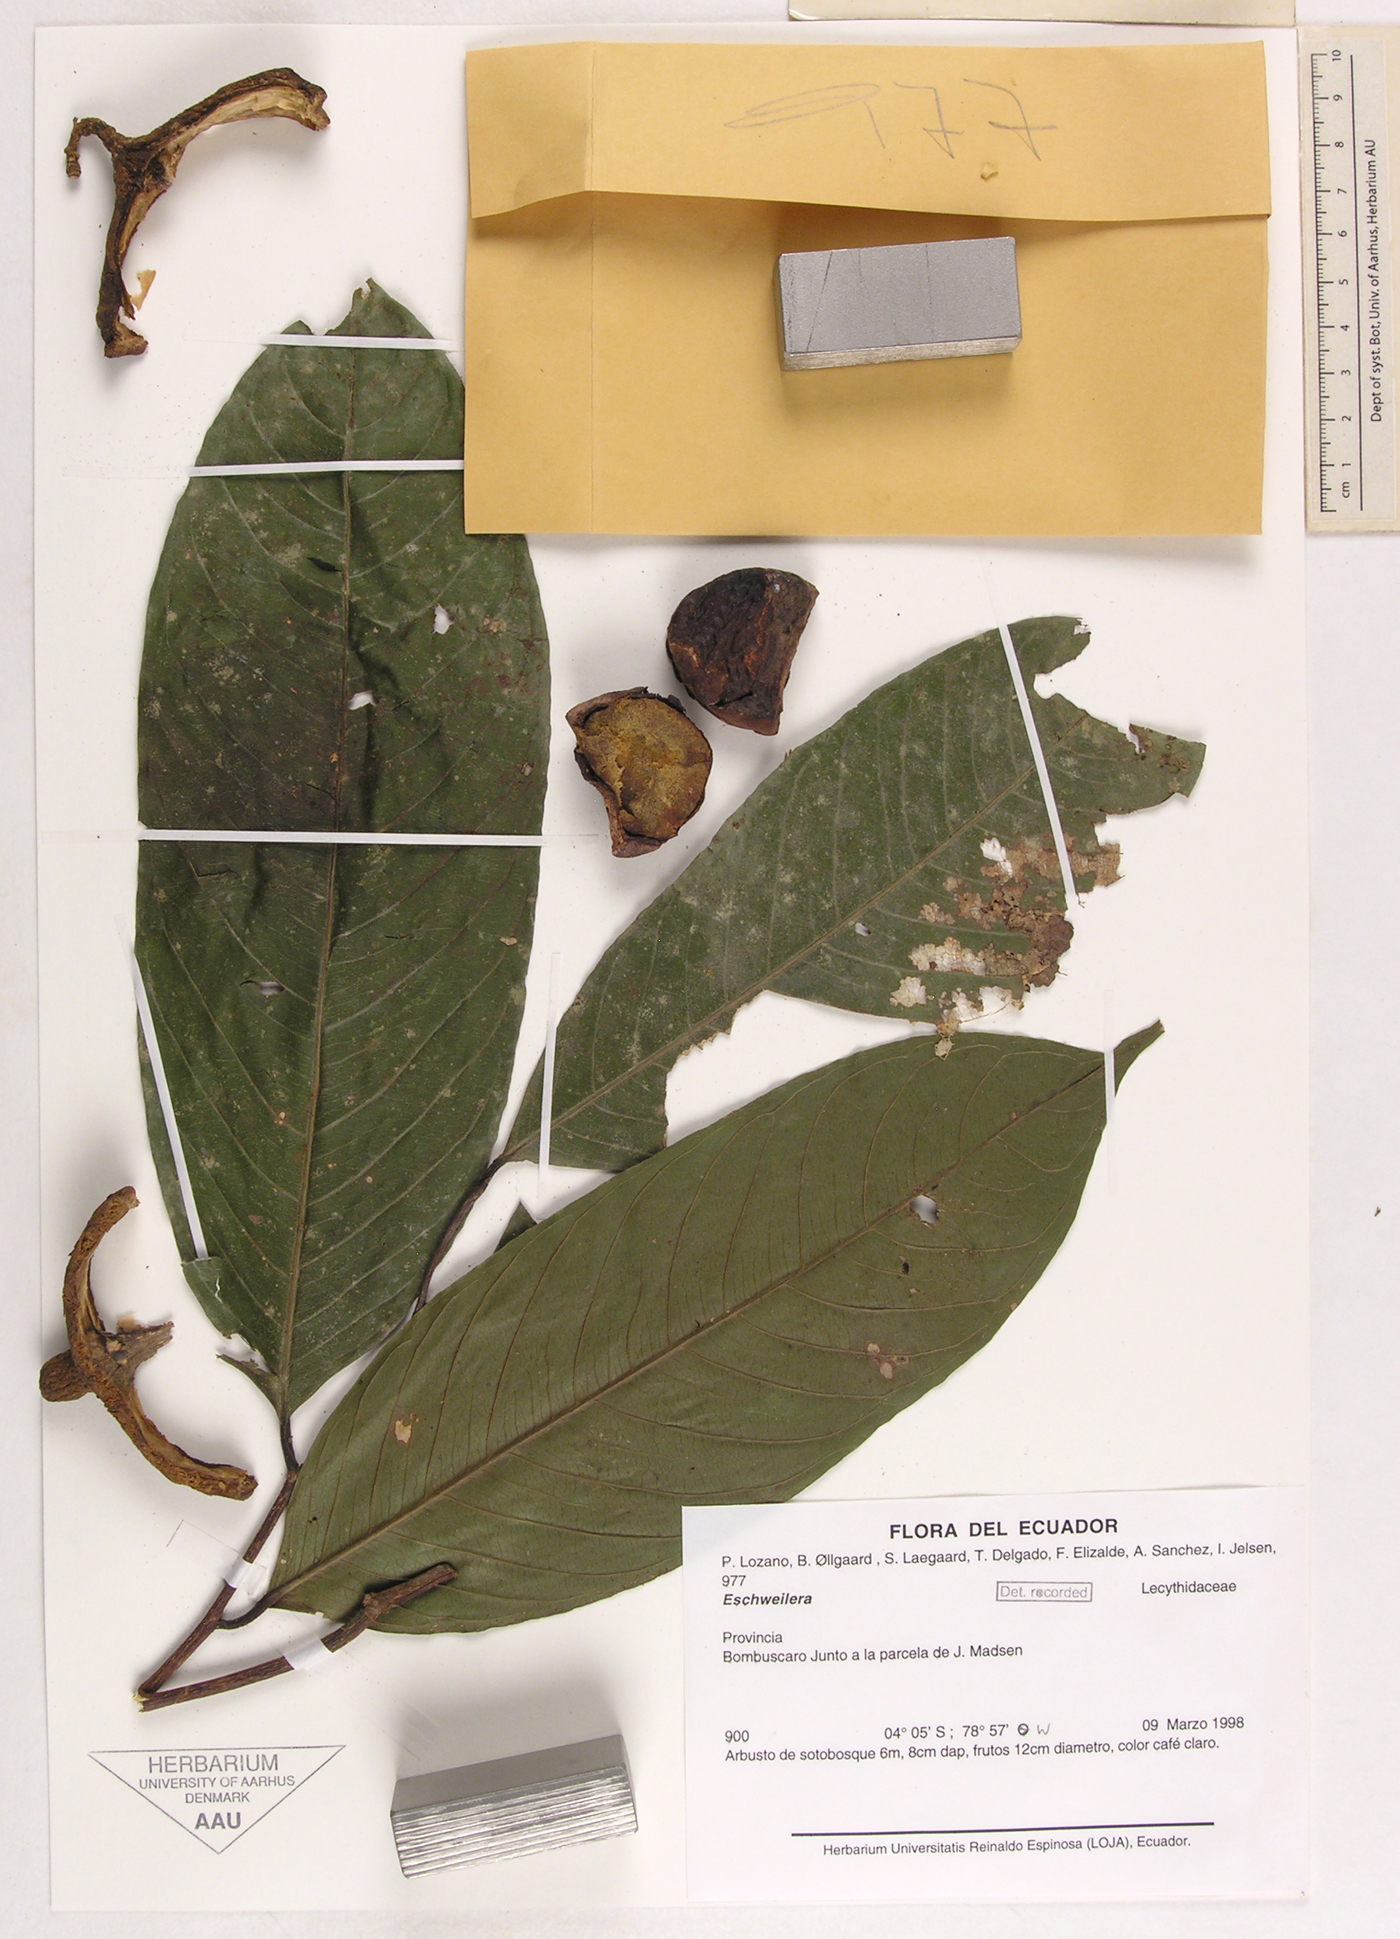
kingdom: Plantae
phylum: Tracheophyta
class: Magnoliopsida
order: Ericales
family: Lecythidaceae
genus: Eschweilera
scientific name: Eschweilera
